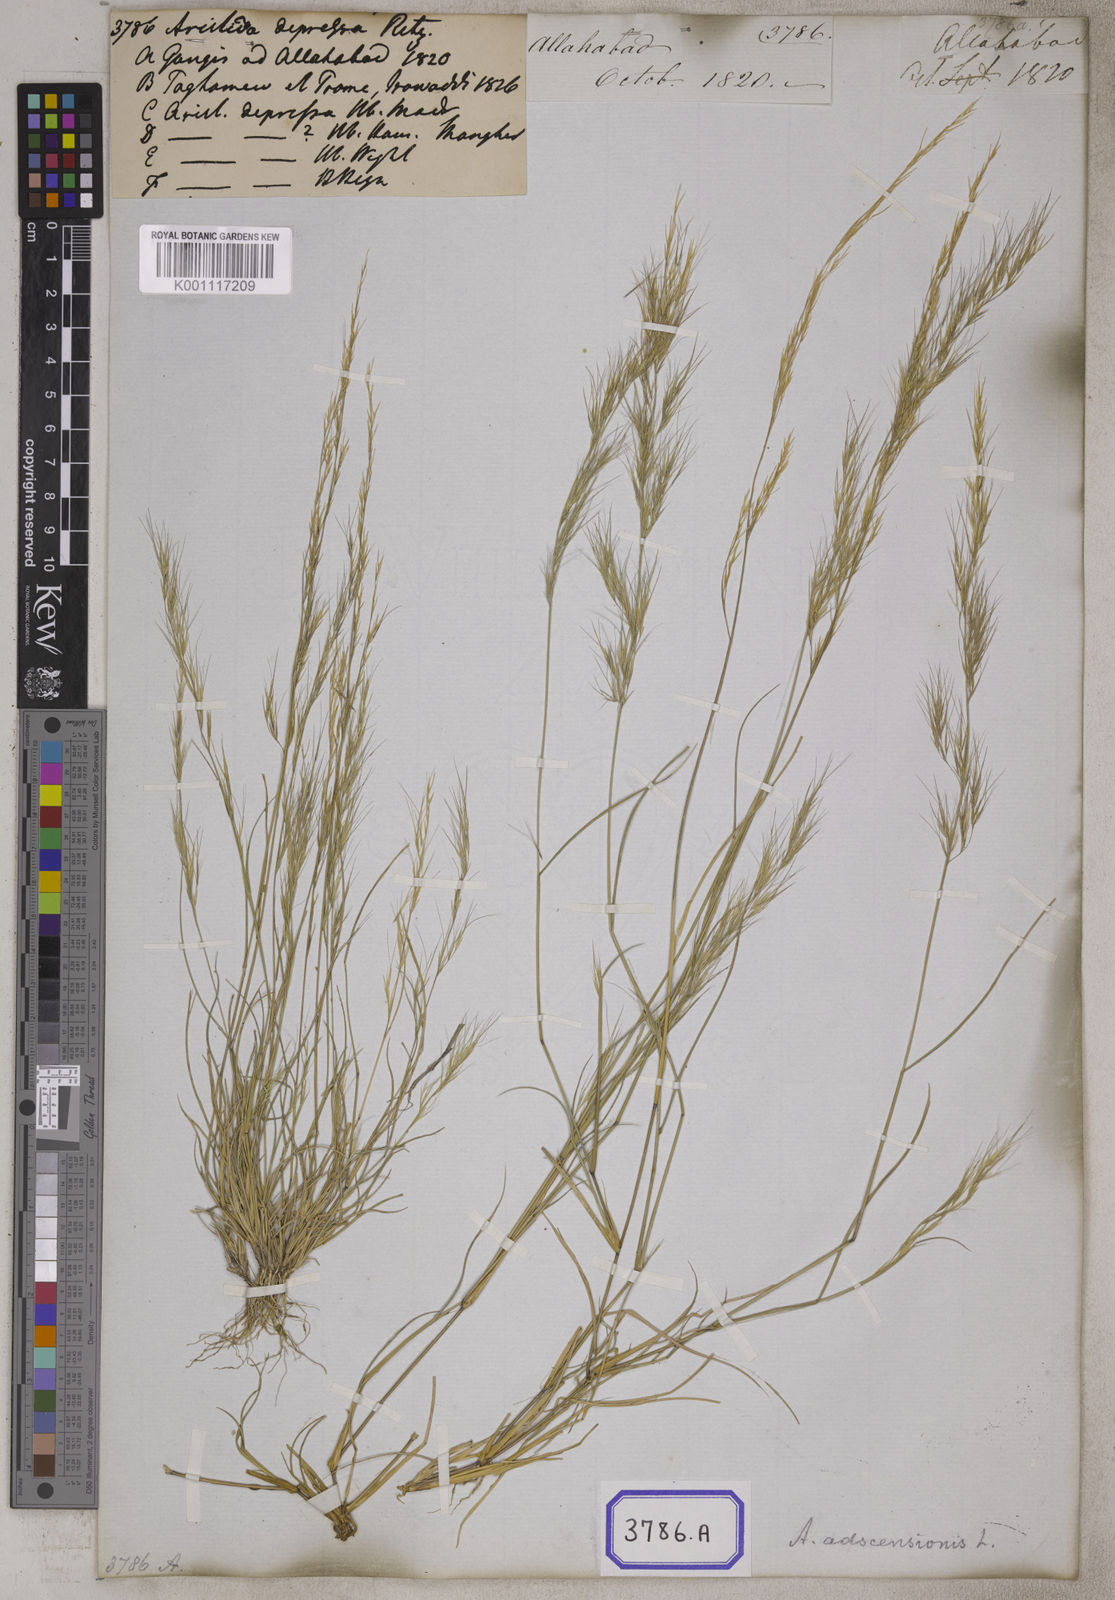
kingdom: Plantae
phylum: Tracheophyta
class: Liliopsida
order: Poales
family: Poaceae
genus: Aristida
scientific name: Aristida adscensionis
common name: Sixweeks threeawn
